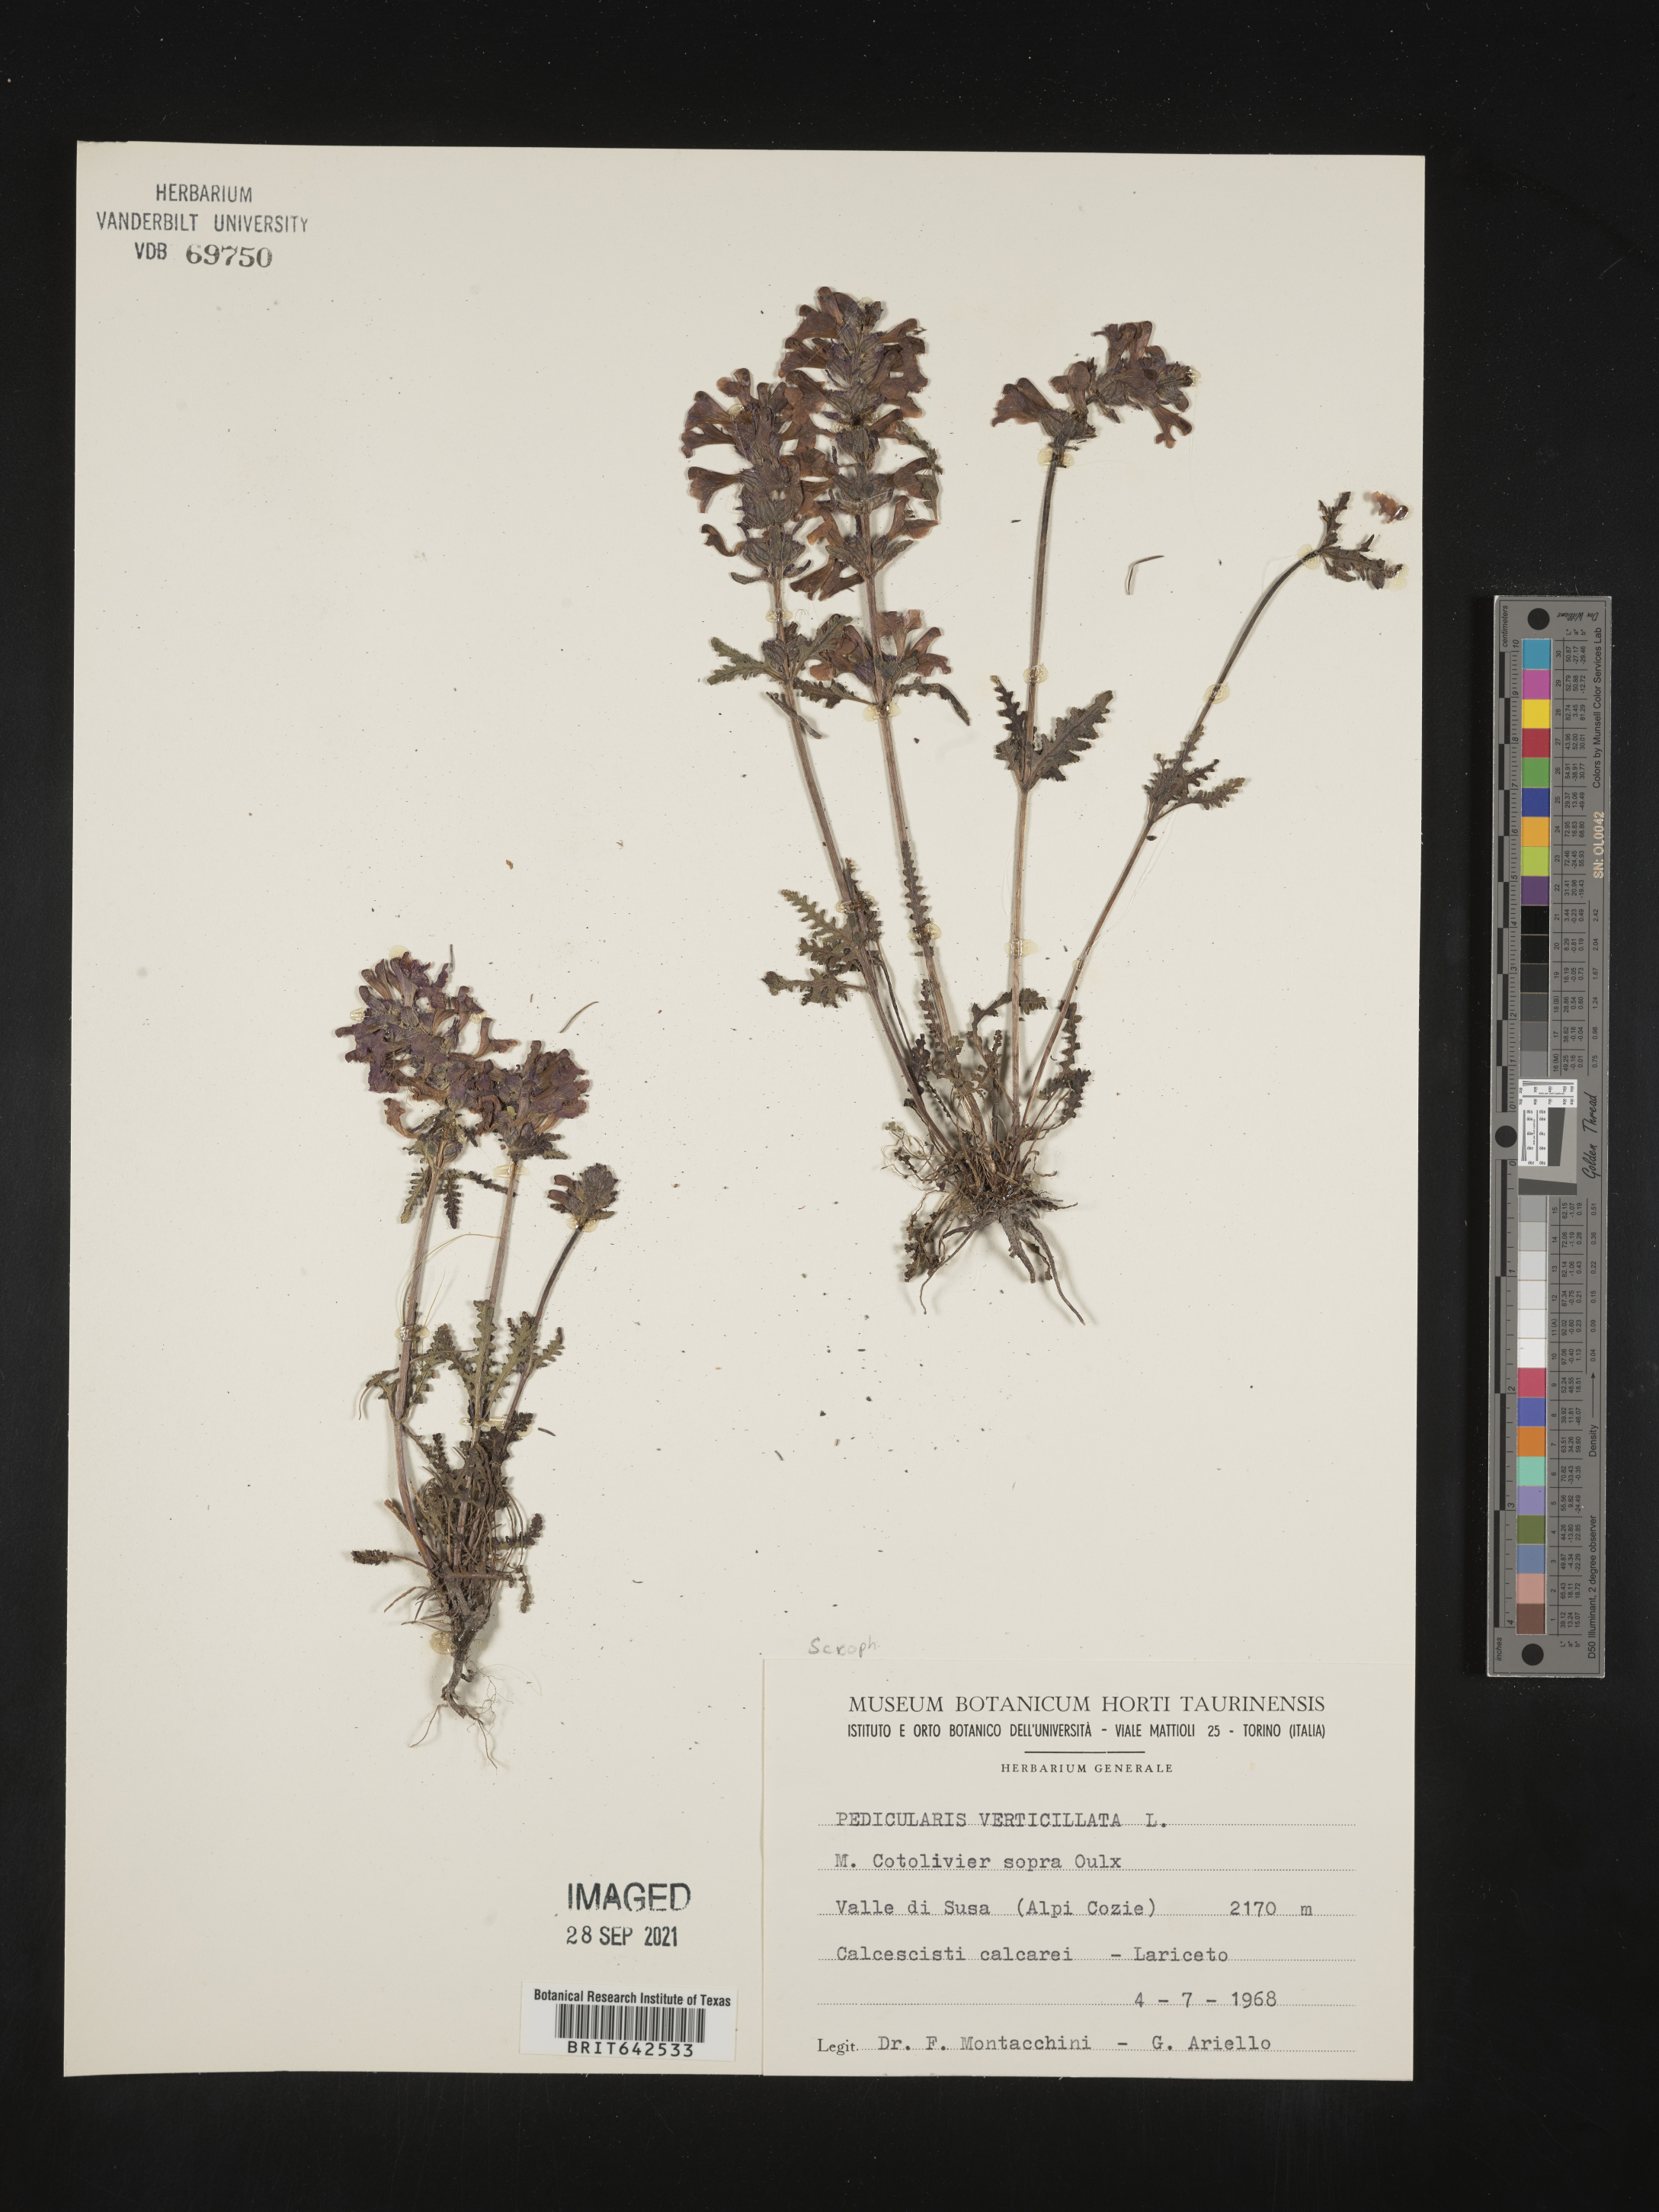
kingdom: Plantae
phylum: Tracheophyta
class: Magnoliopsida
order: Lamiales
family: Orobanchaceae
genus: Pedicularis
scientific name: Pedicularis
